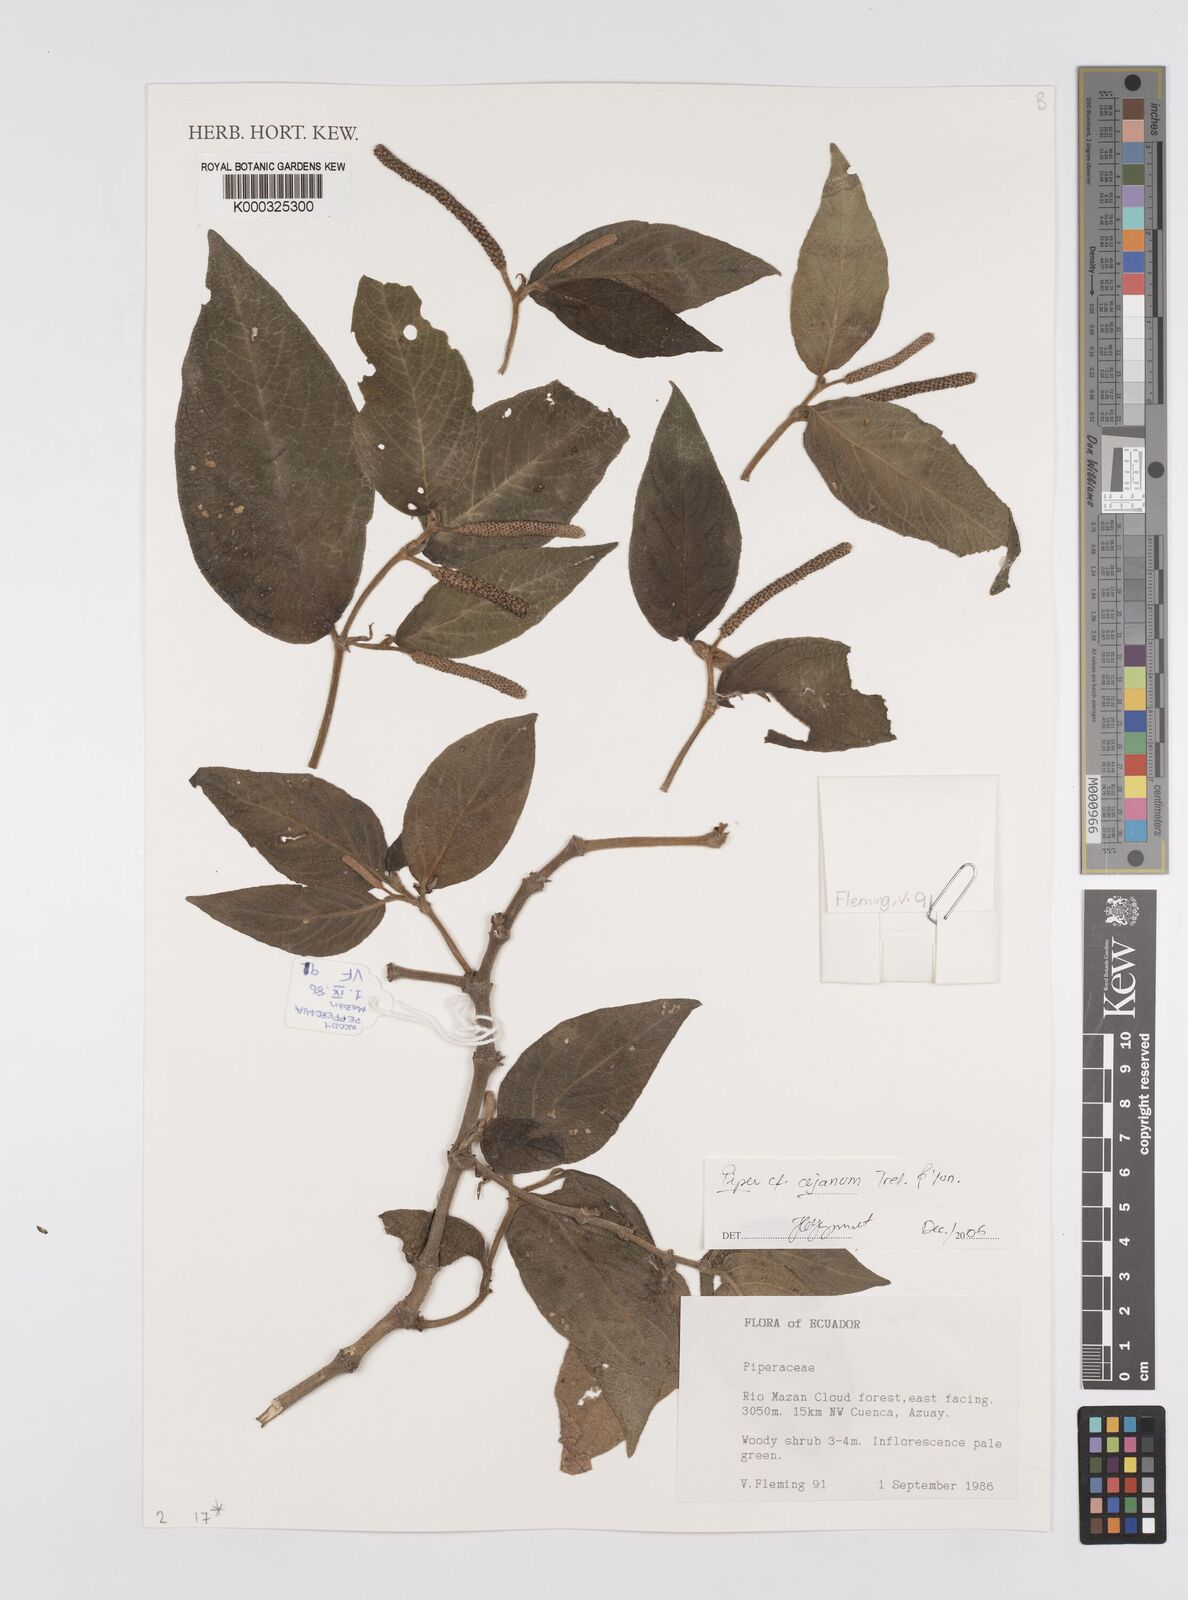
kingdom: Plantae
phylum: Tracheophyta
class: Magnoliopsida
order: Piperales
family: Piperaceae
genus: Piper
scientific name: Piper cejanum
